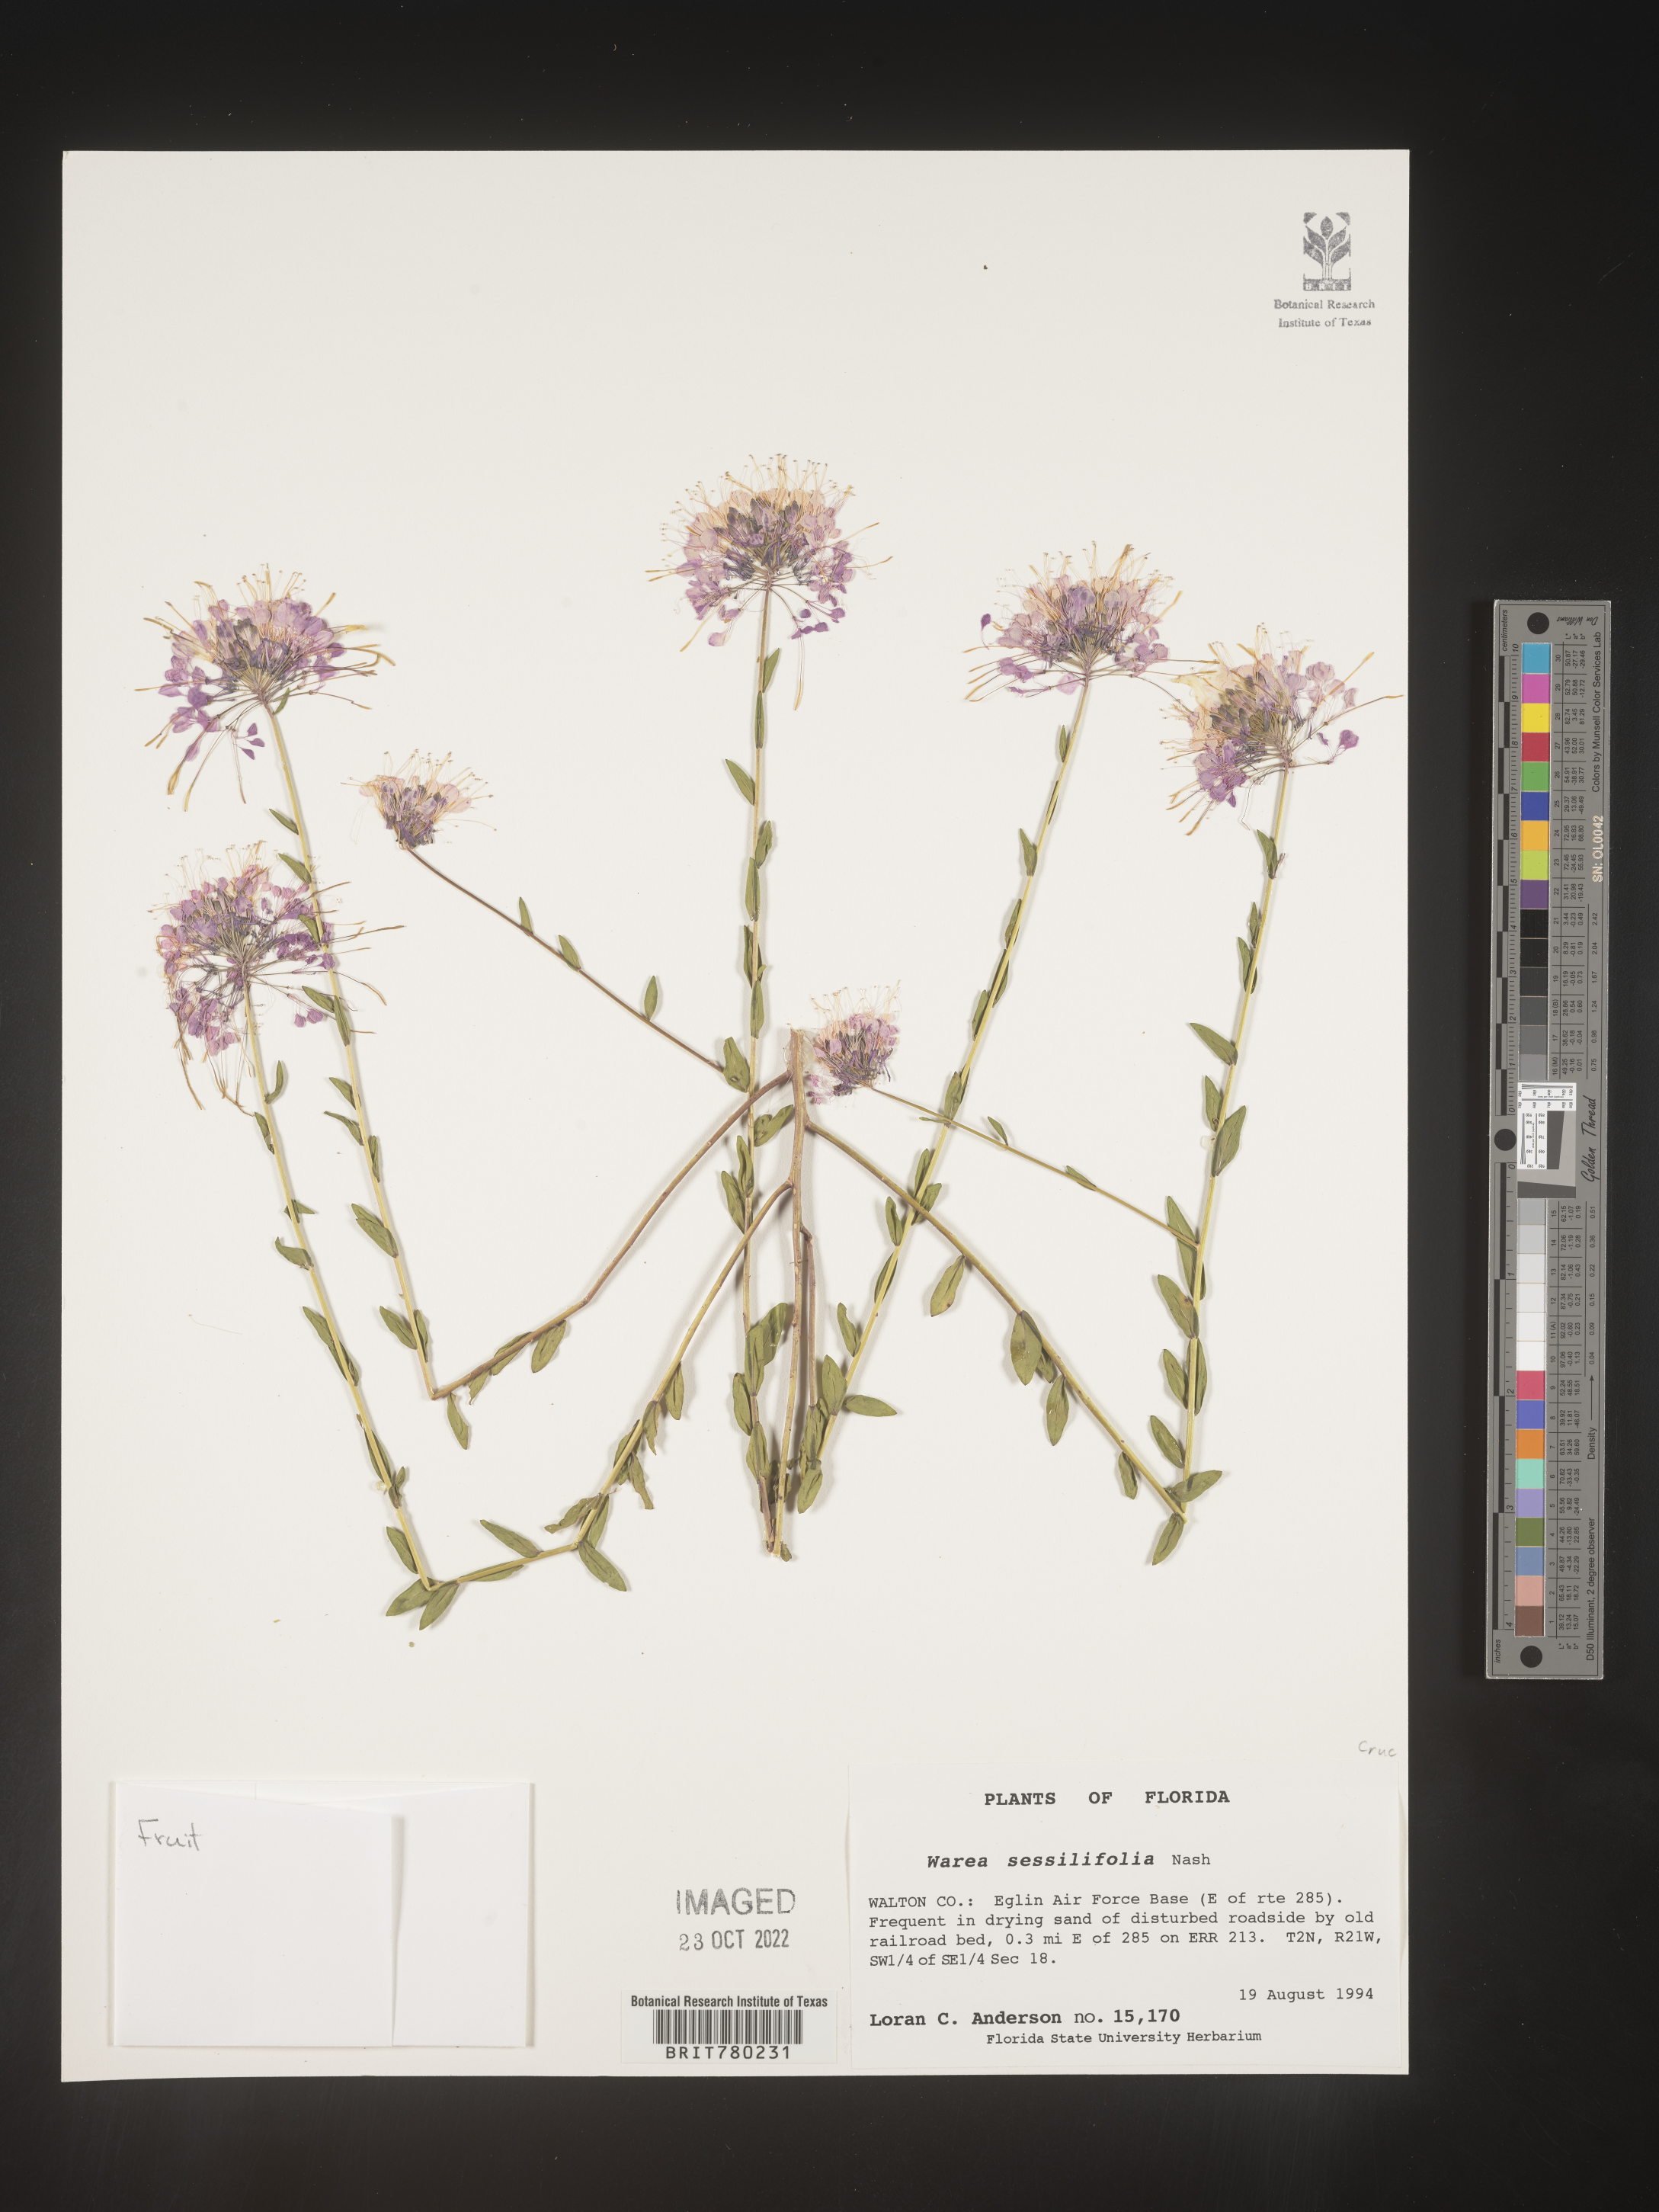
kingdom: Plantae
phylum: Tracheophyta
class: Magnoliopsida
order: Brassicales
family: Brassicaceae
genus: Warea
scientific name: Warea
